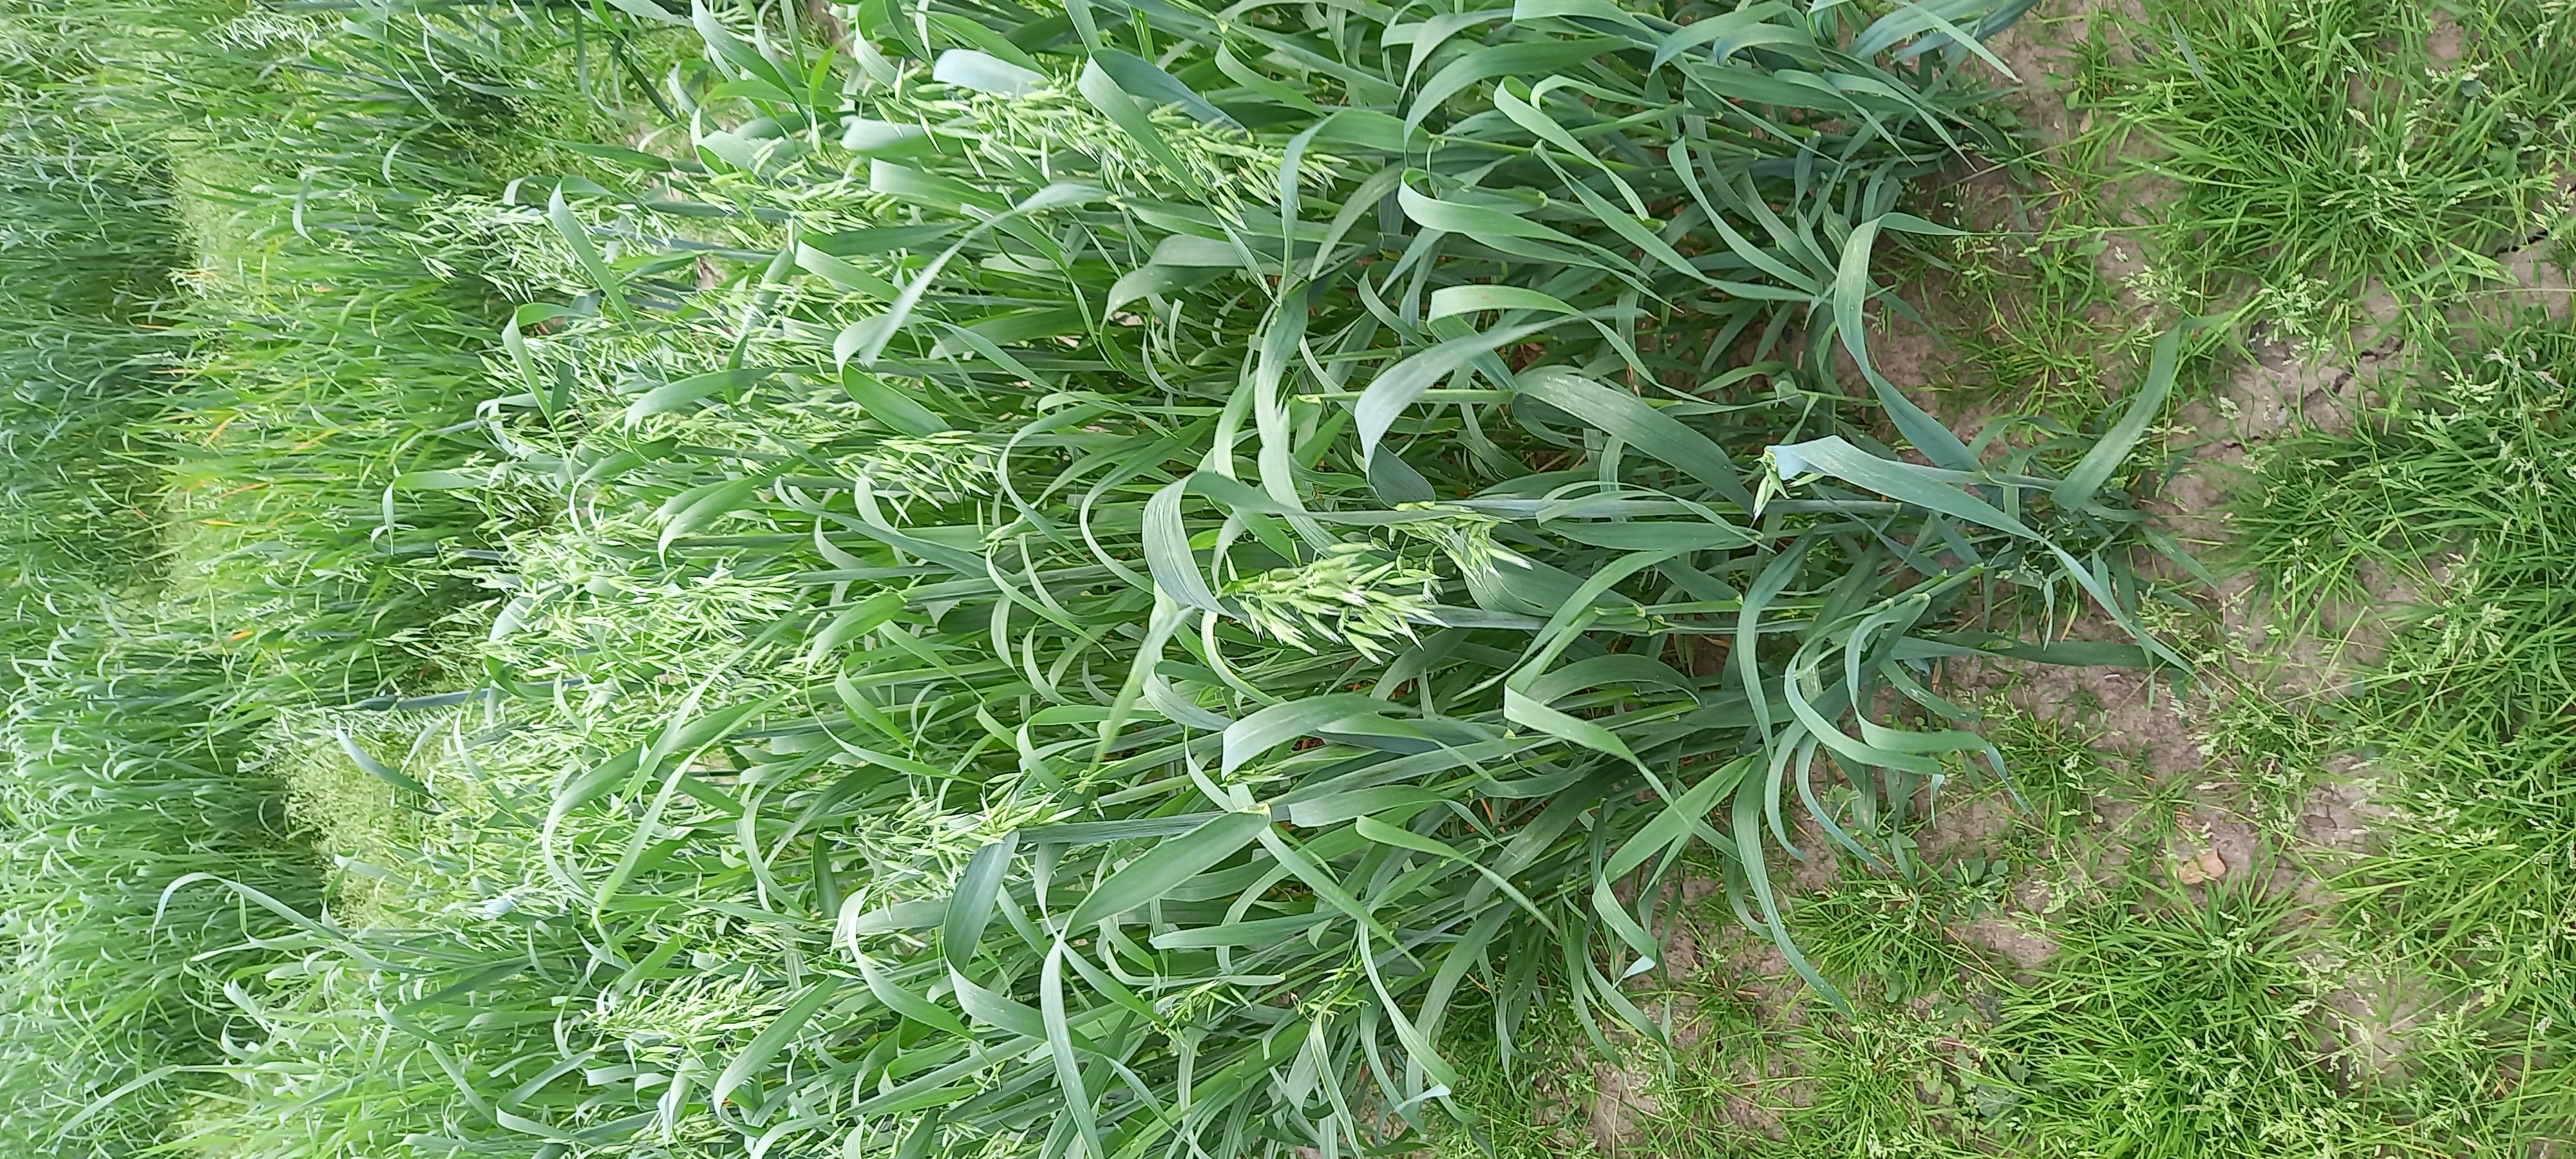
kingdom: Plantae
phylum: Tracheophyta
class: Liliopsida
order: Poales
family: Poaceae
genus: Avena
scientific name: Avena sativa
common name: Oat
